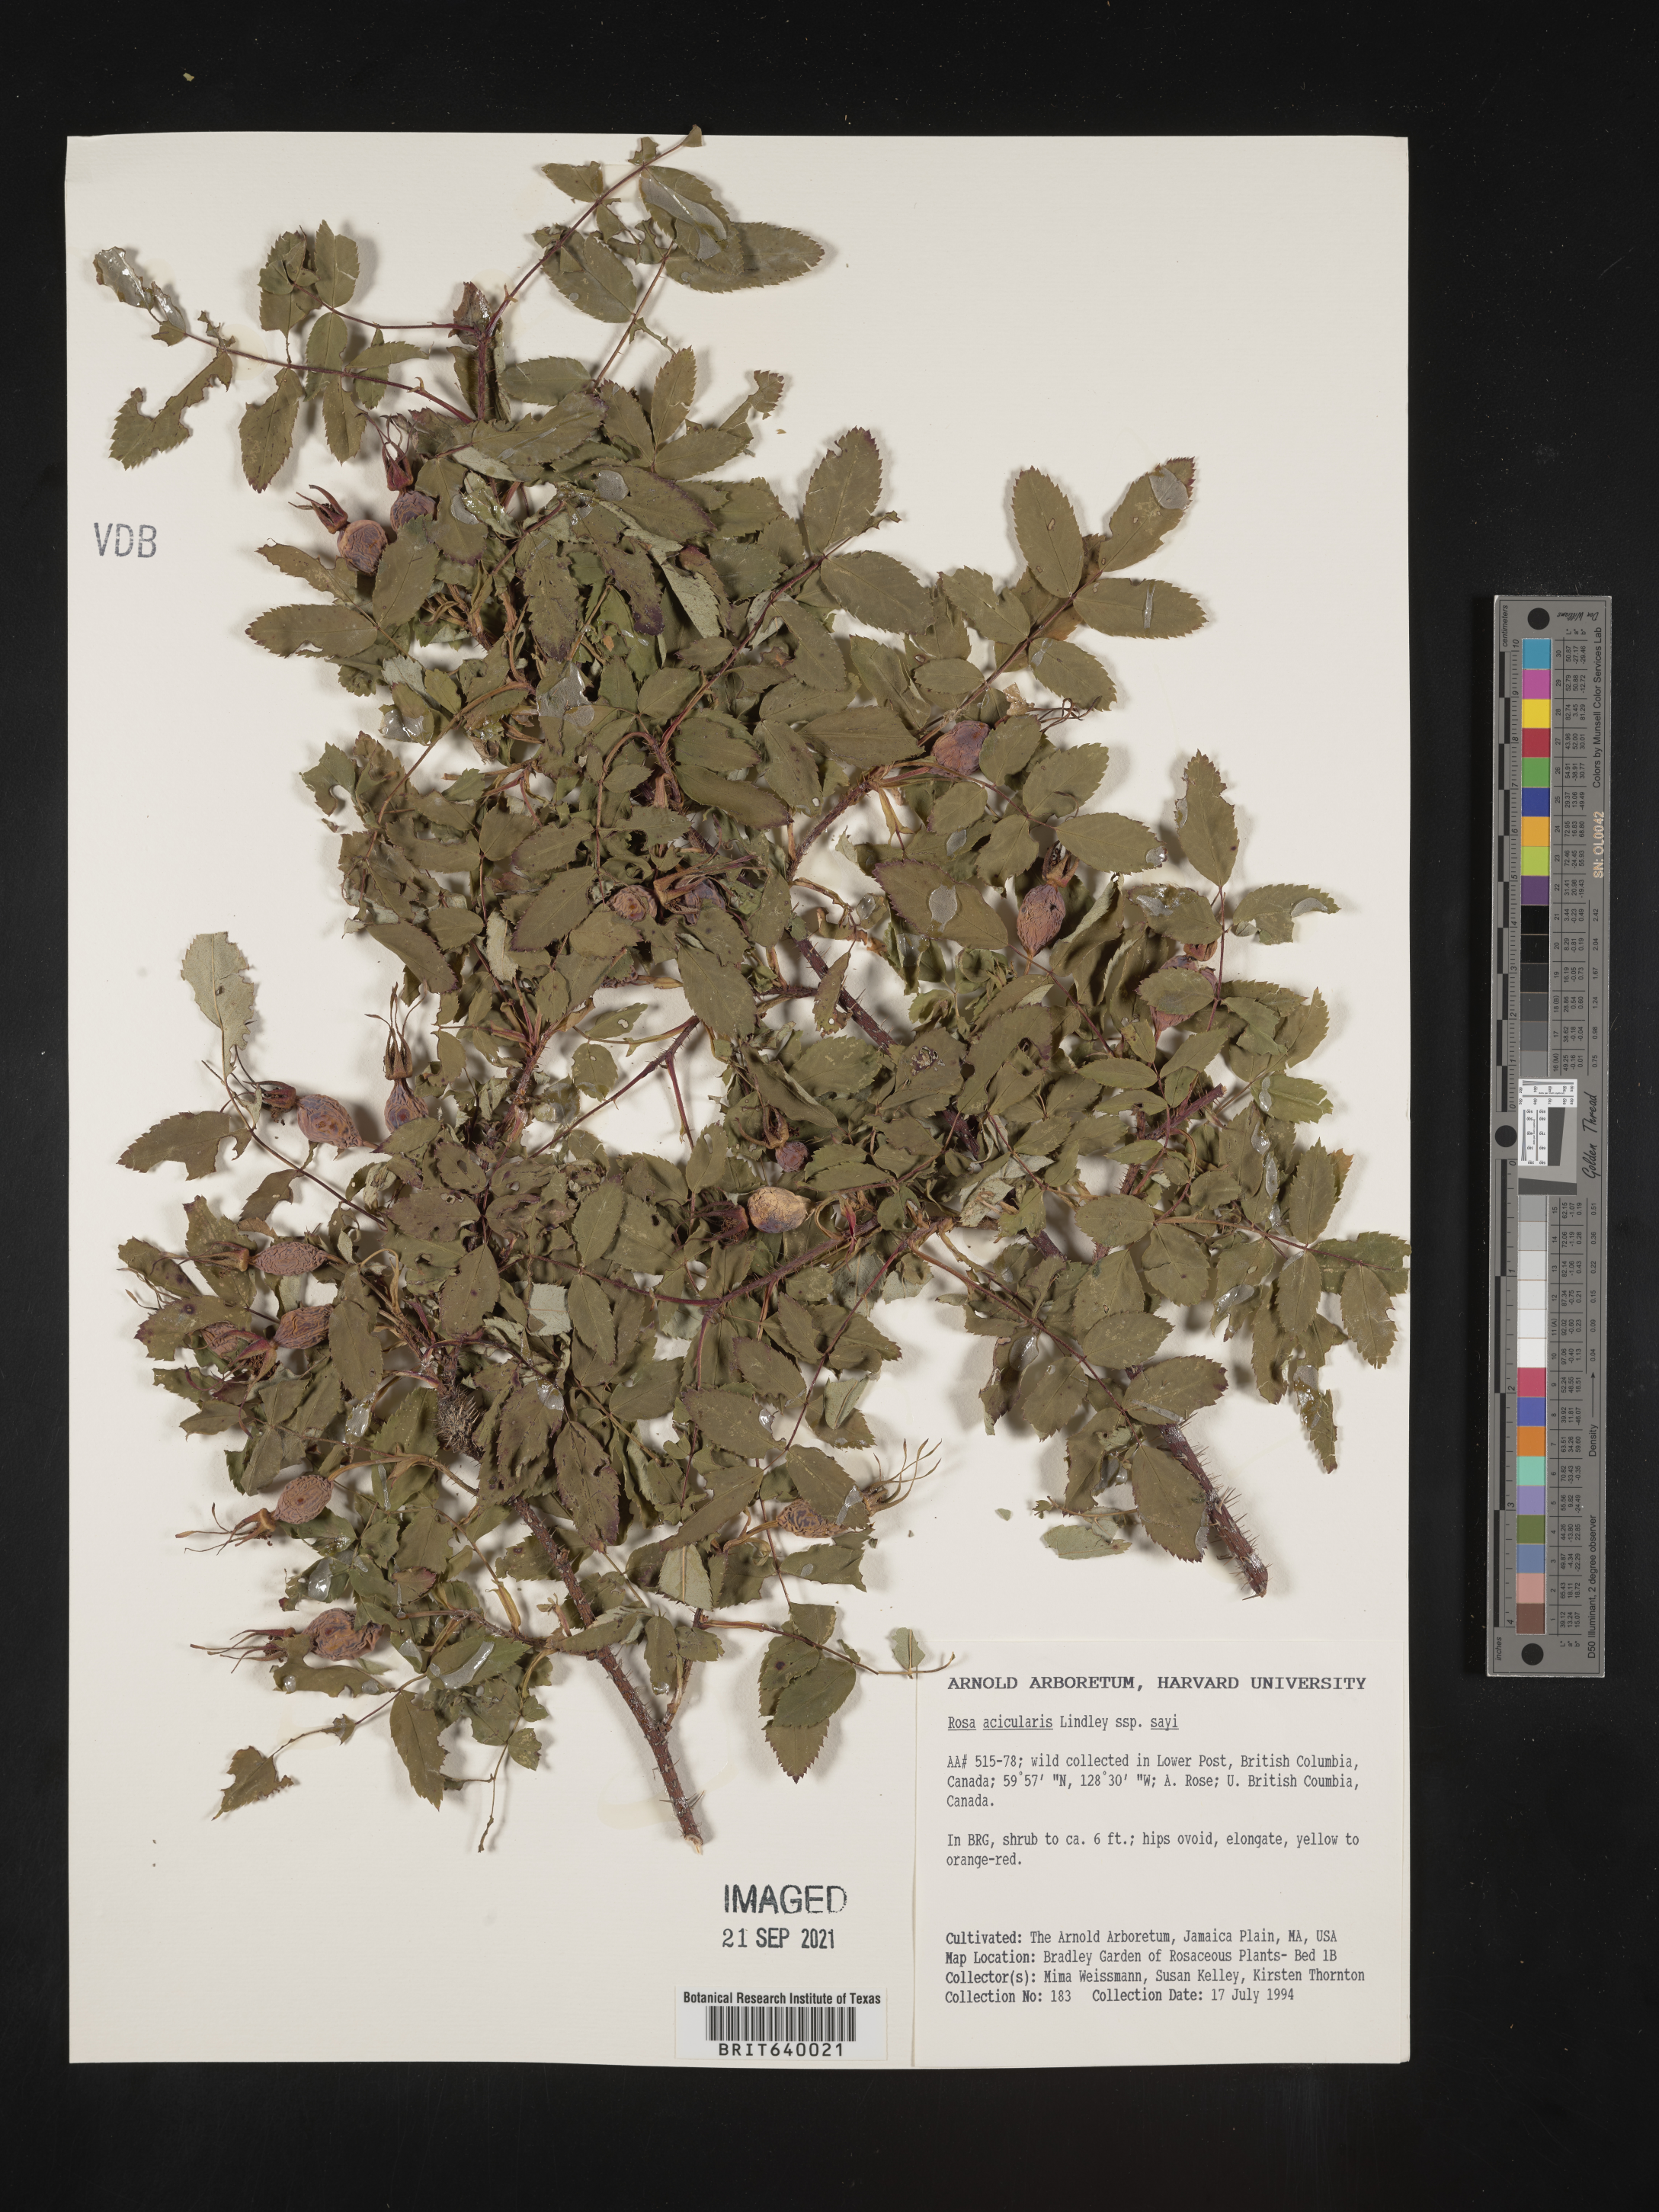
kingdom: Plantae
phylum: Tracheophyta
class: Magnoliopsida
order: Rosales
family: Rosaceae
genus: Rosa
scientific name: Rosa
